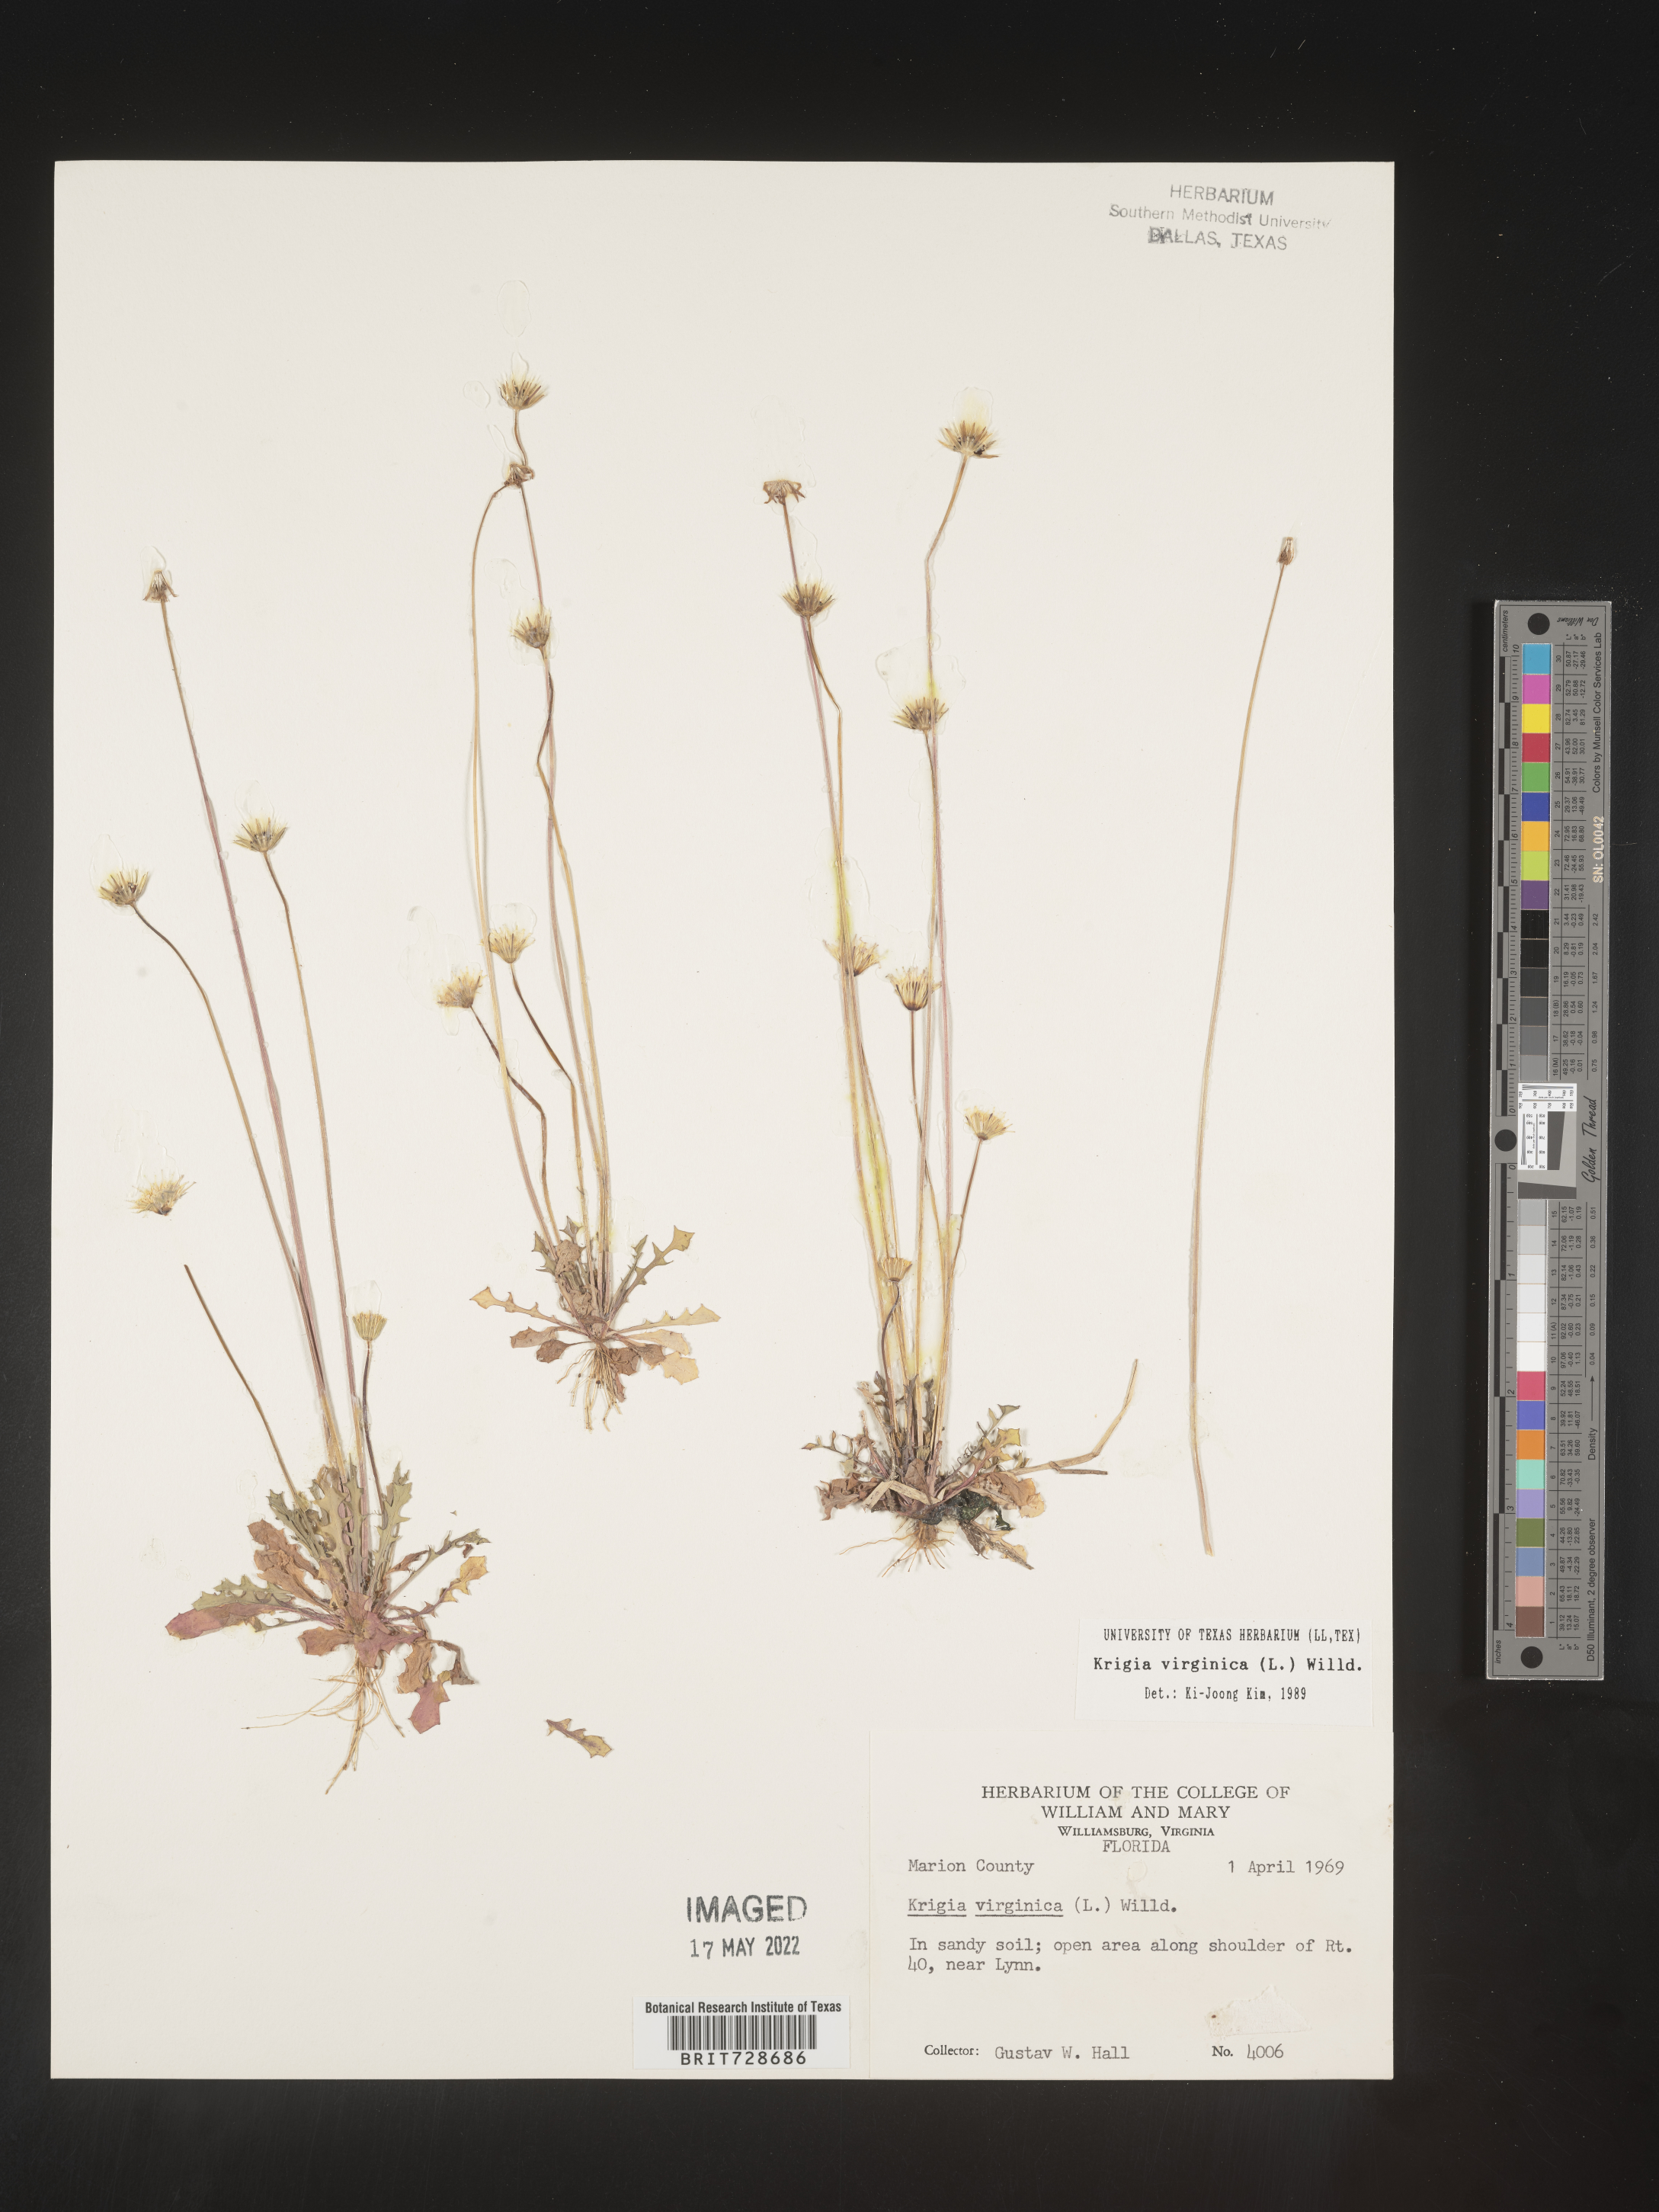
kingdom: Plantae
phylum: Tracheophyta
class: Magnoliopsida
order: Asterales
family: Asteraceae
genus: Krigia
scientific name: Krigia virginica
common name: Virginia dwarf-dandelion
